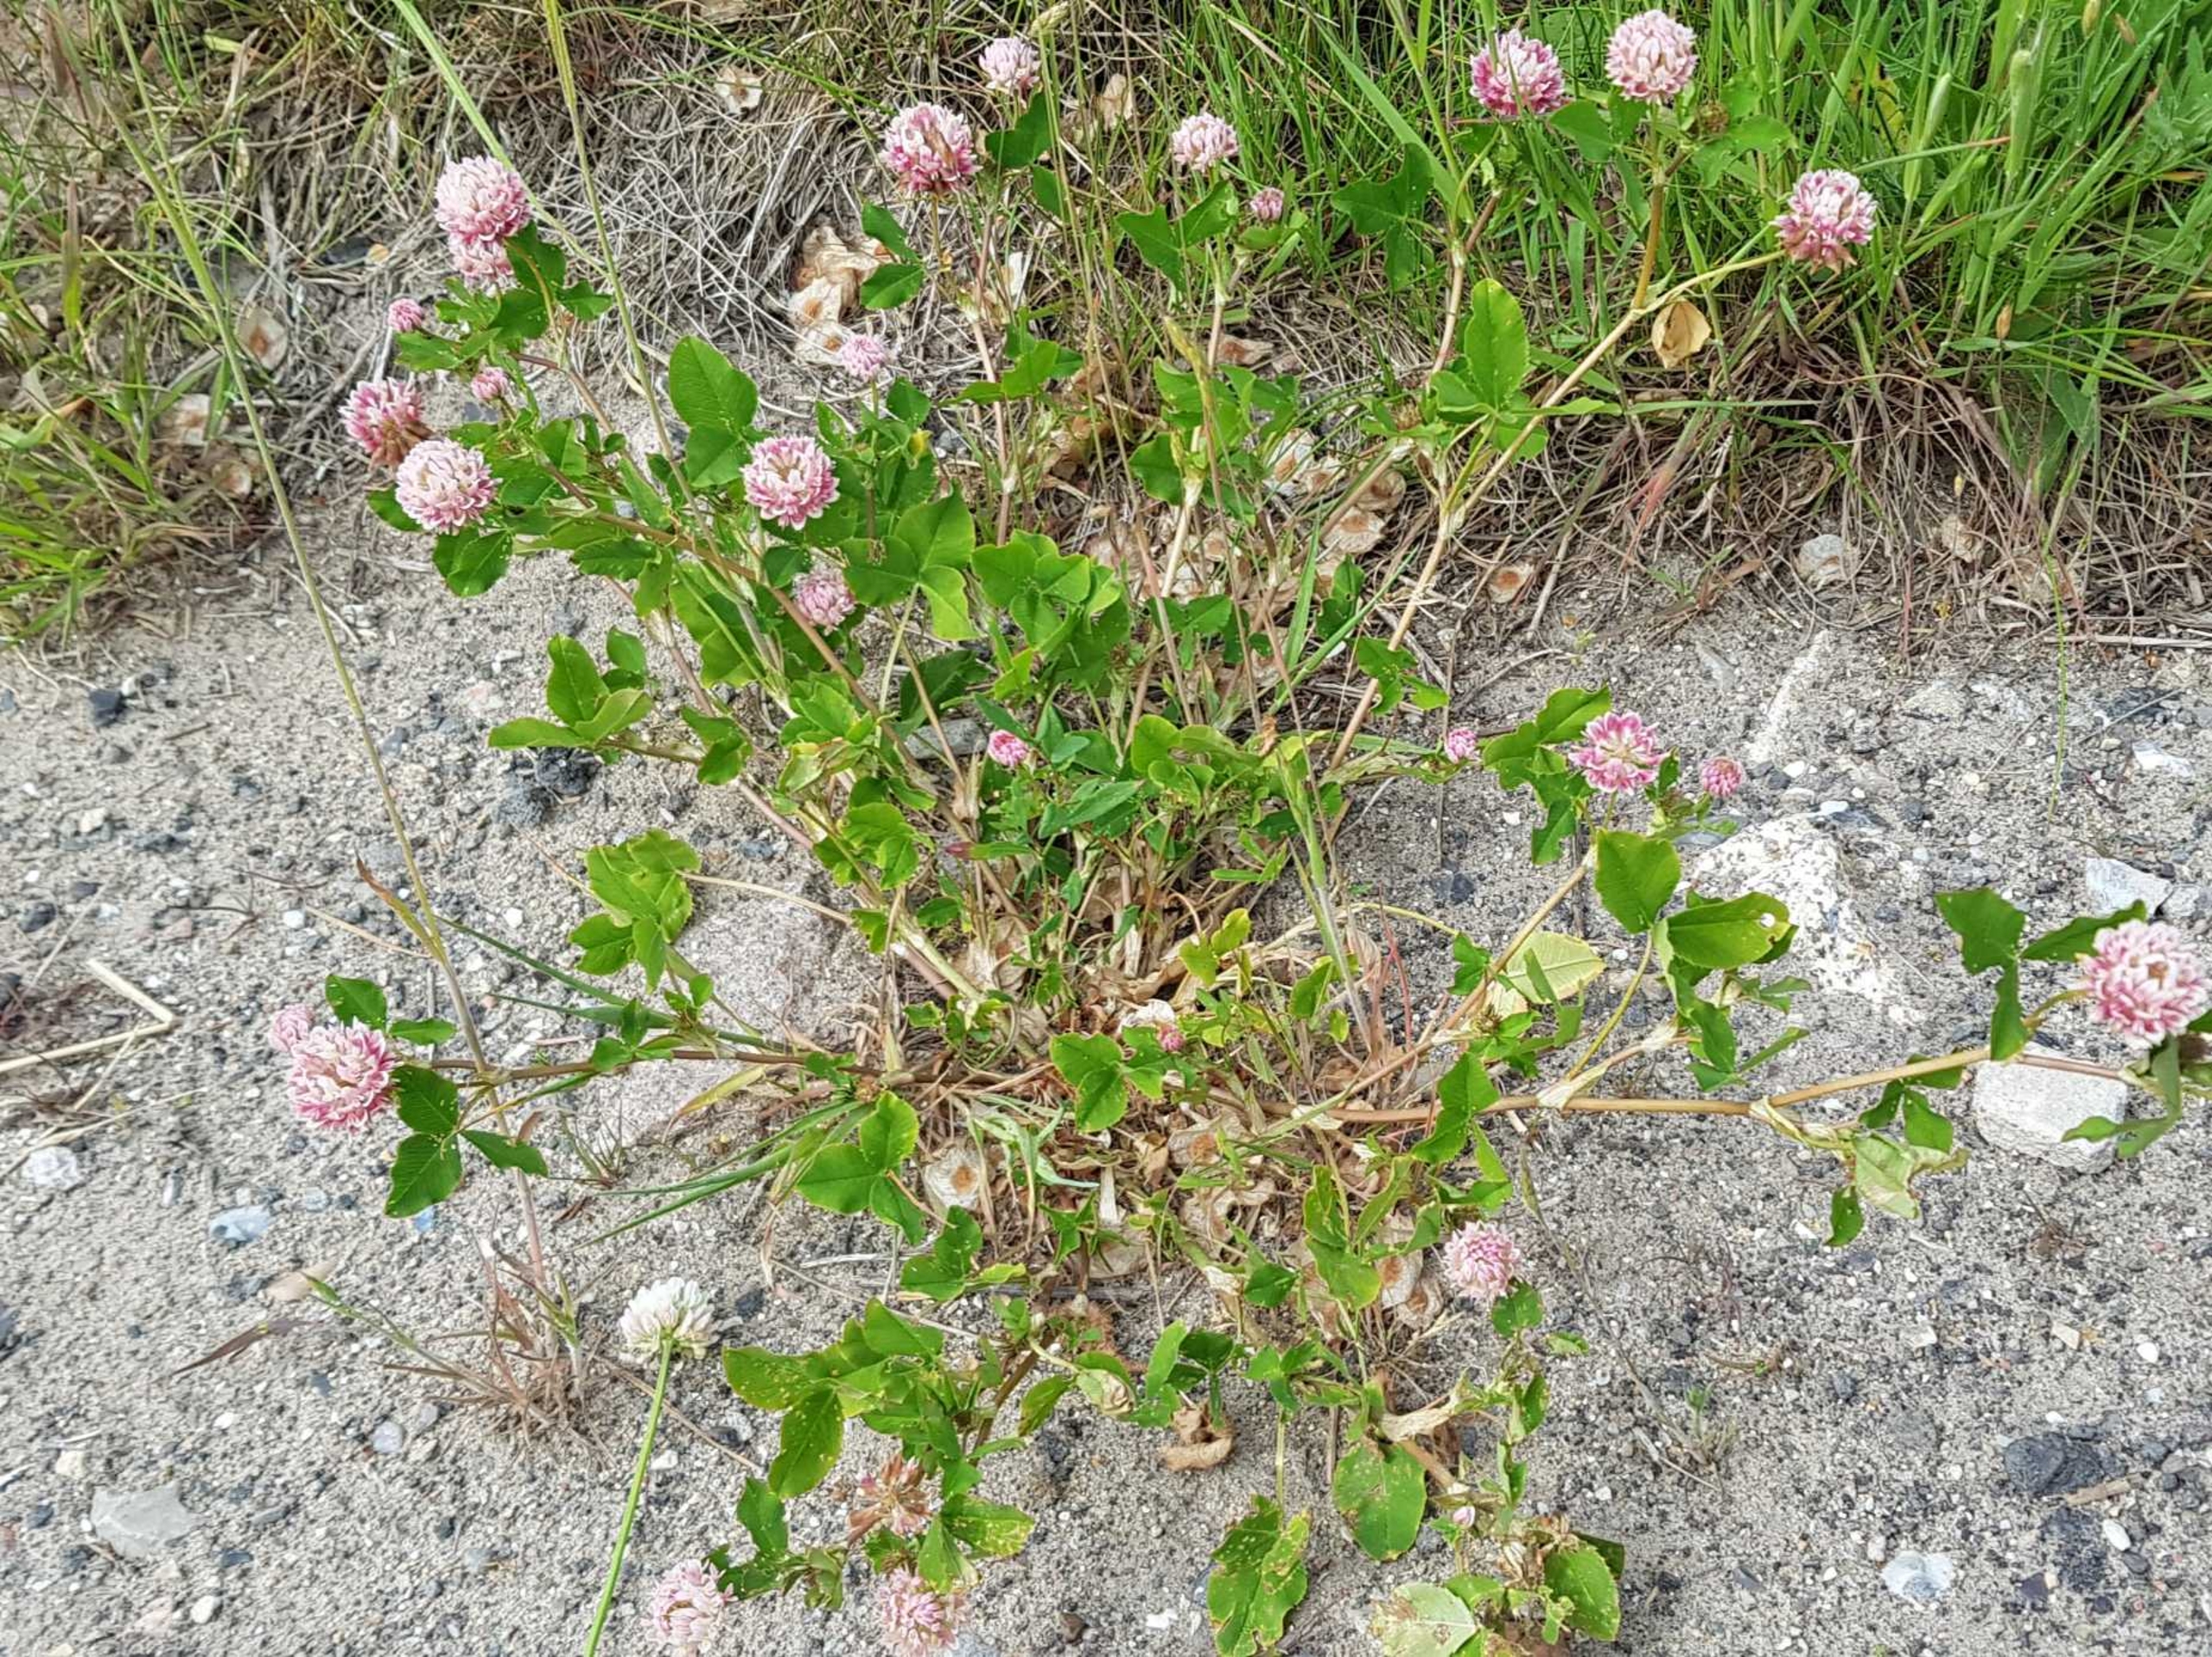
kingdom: Plantae
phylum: Tracheophyta
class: Magnoliopsida
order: Fabales
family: Fabaceae
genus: Trifolium
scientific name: Trifolium hybridum
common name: Alsike-kløver
